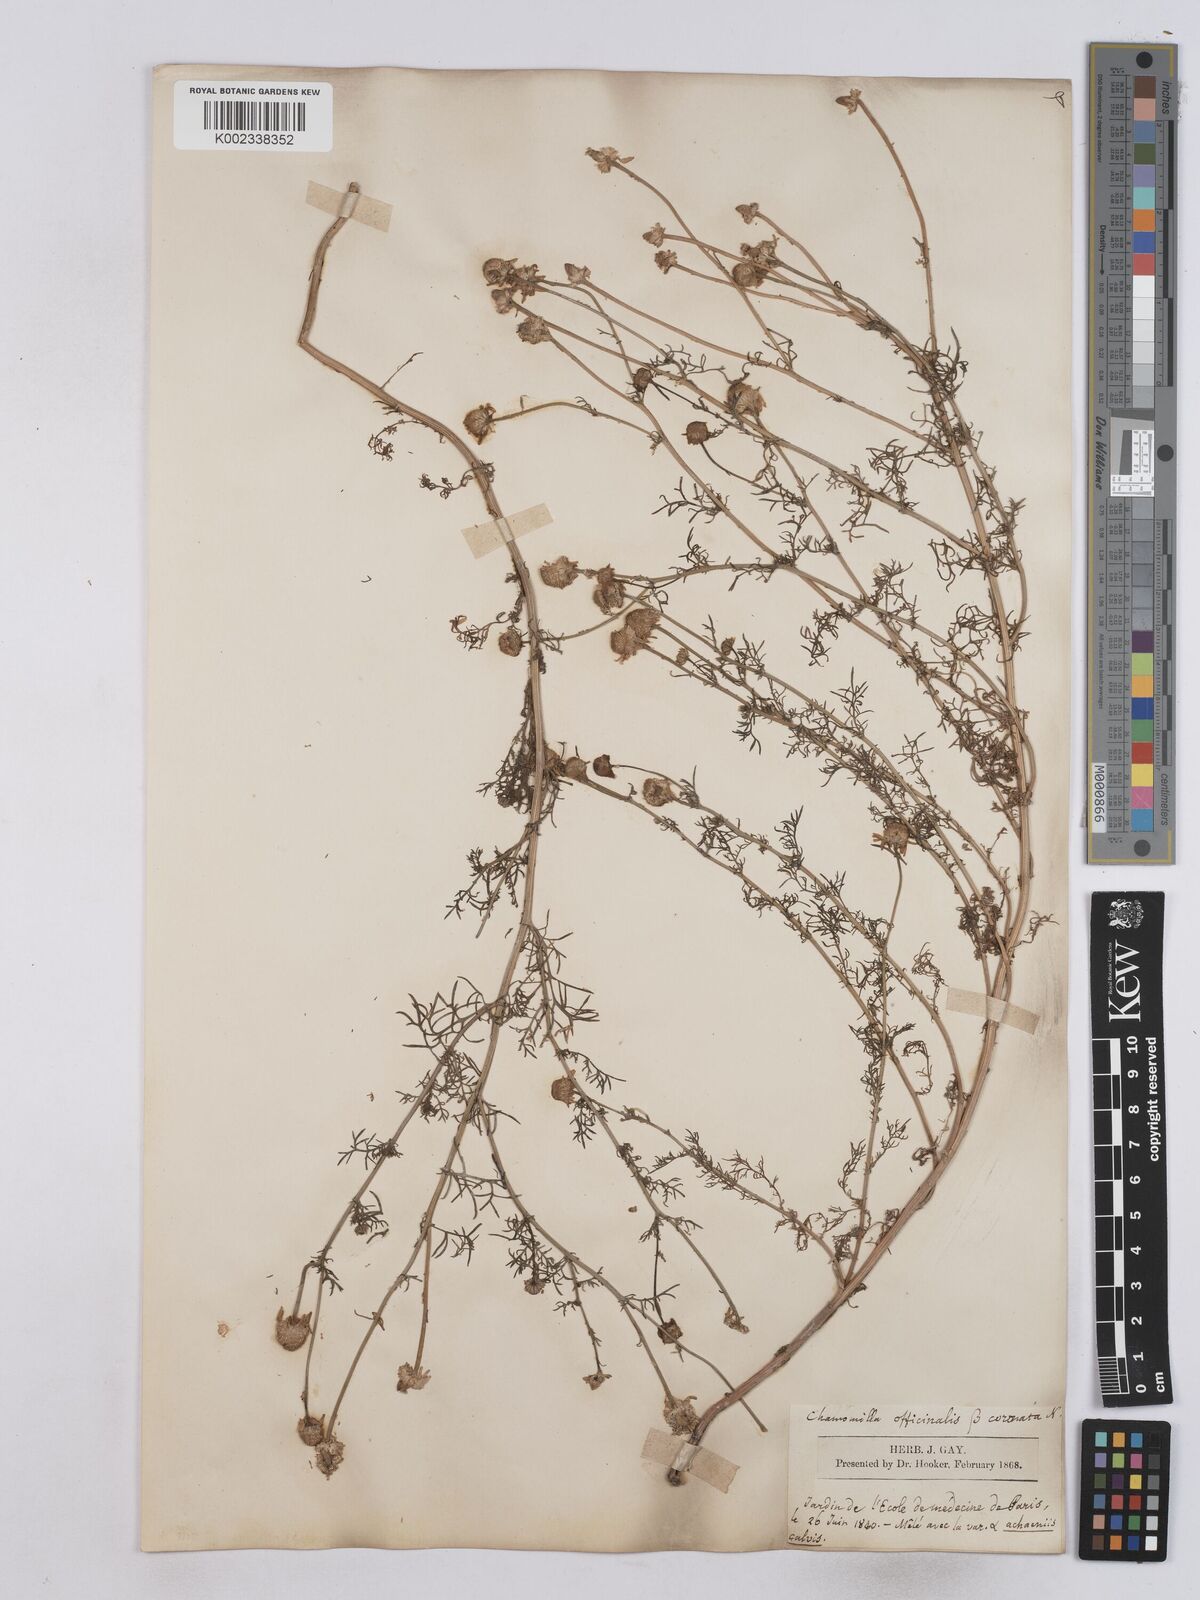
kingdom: Plantae
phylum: Tracheophyta
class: Magnoliopsida
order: Asterales
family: Asteraceae
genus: Matricaria
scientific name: Matricaria chamomilla
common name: Scented mayweed
